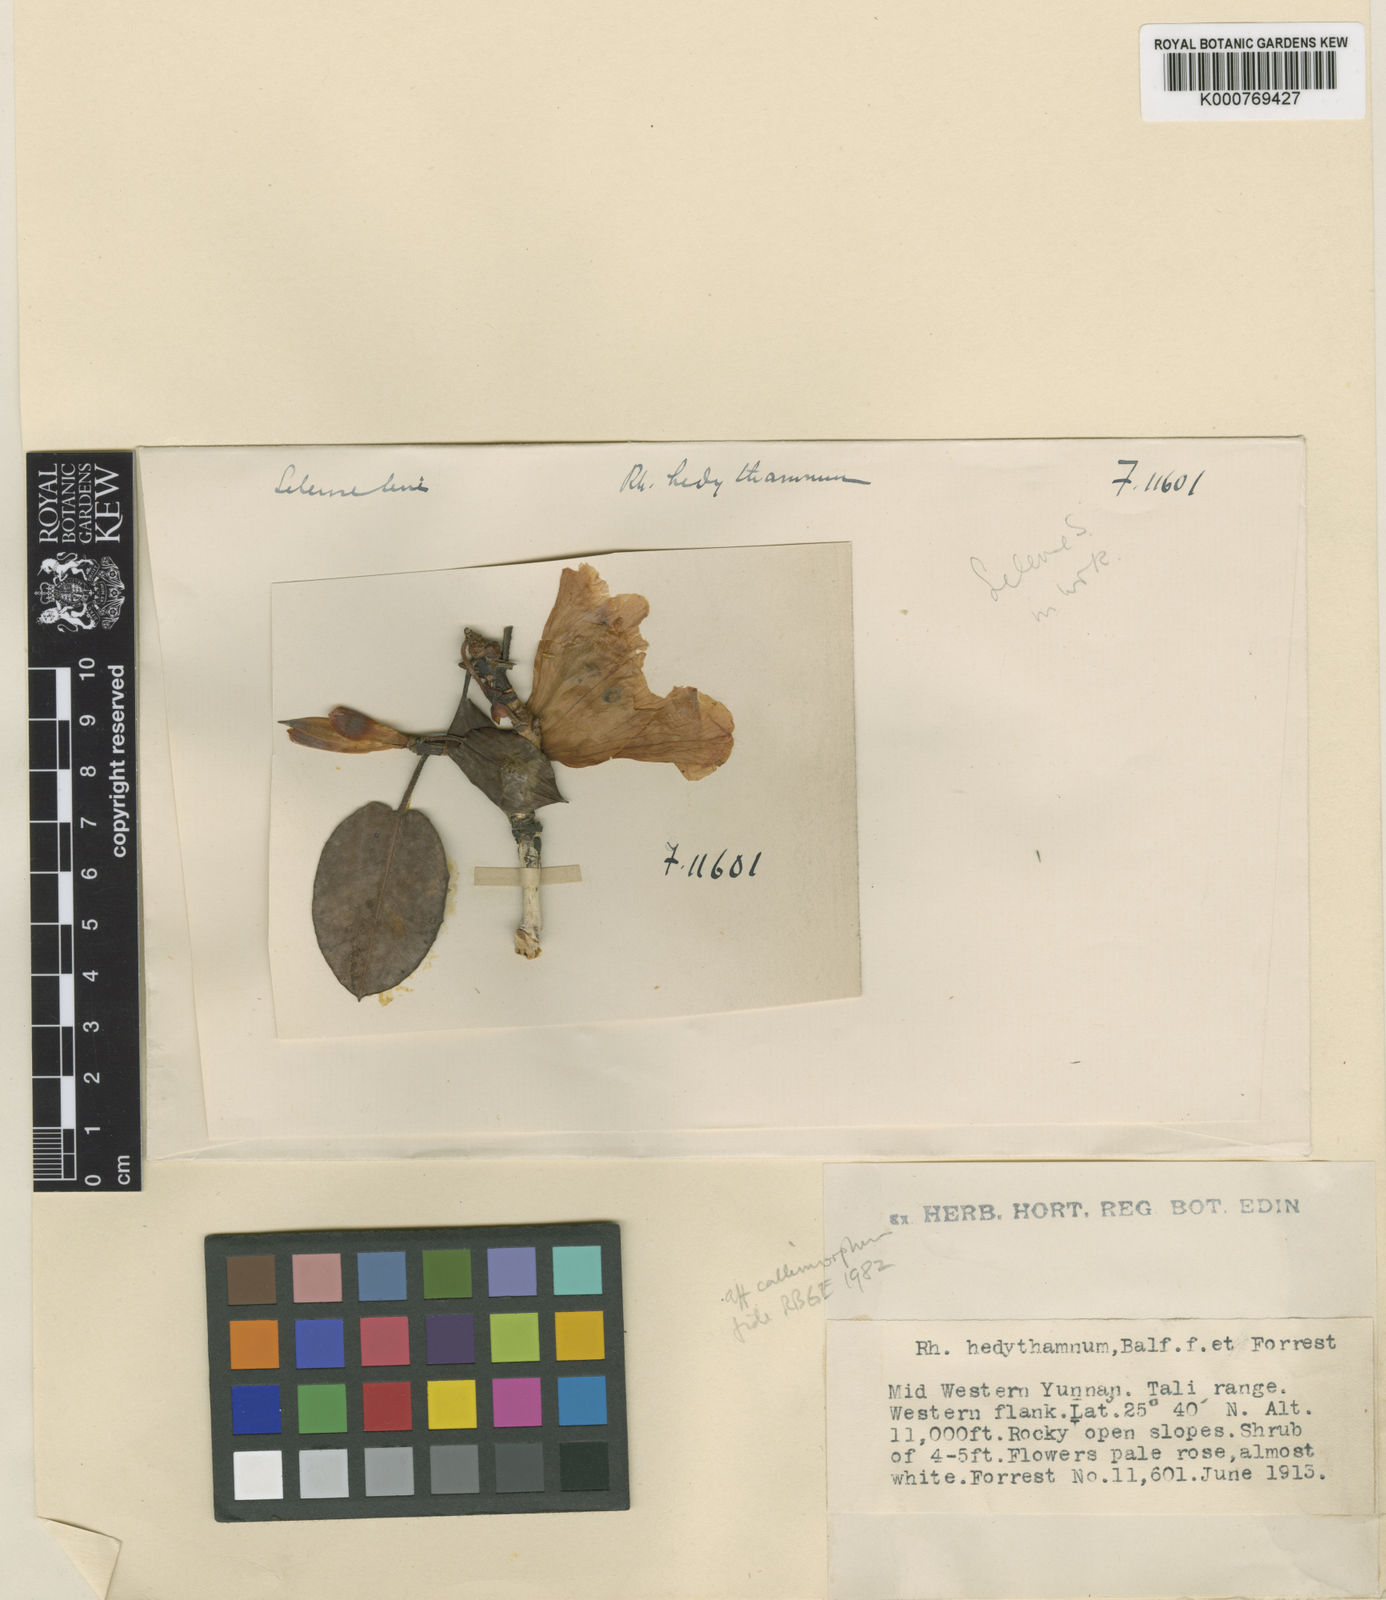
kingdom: Plantae
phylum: Tracheophyta
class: Magnoliopsida
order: Ericales
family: Ericaceae
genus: Rhododendron
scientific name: Rhododendron callimorphum
